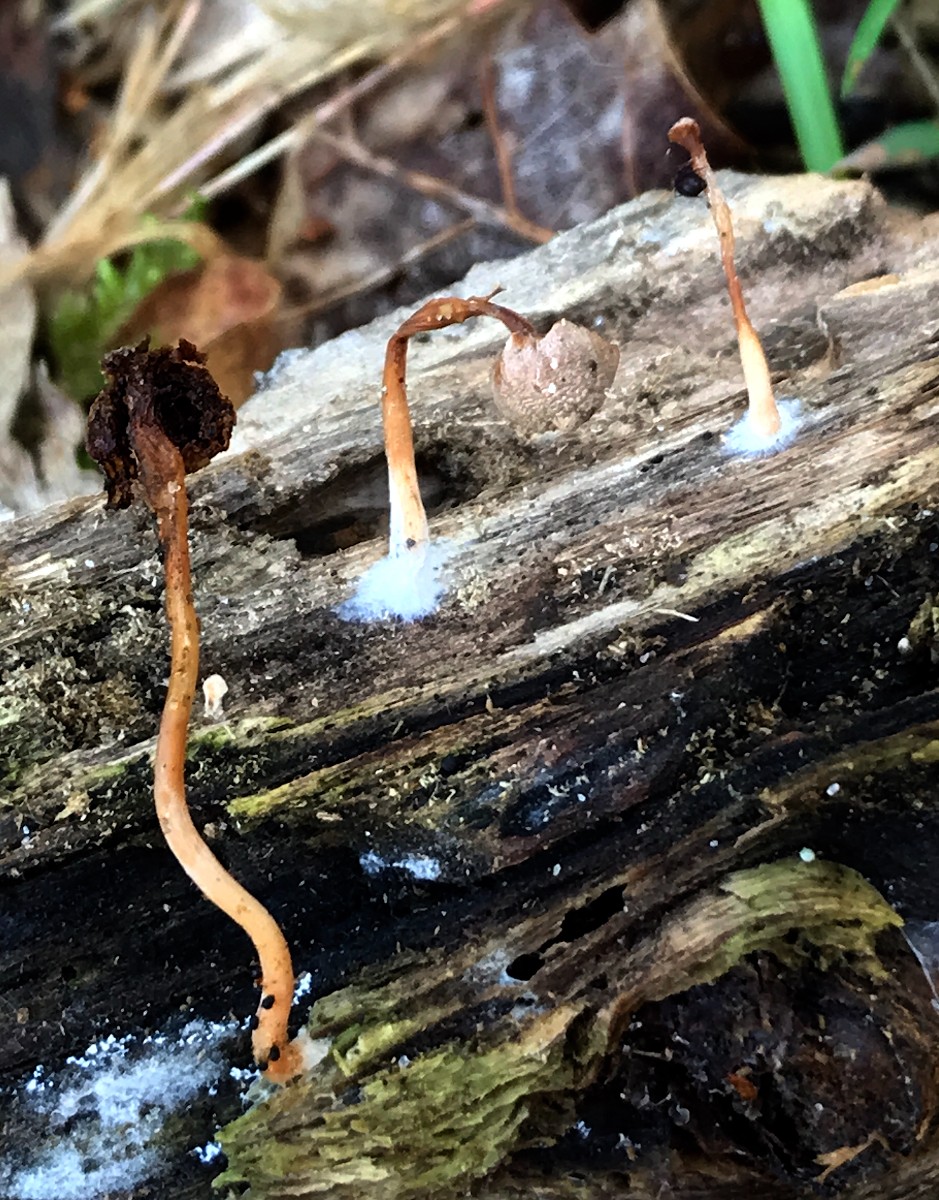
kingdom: Fungi
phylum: Basidiomycota
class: Agaricomycetes
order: Agaricales
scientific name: Agaricales
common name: champignonordenen
